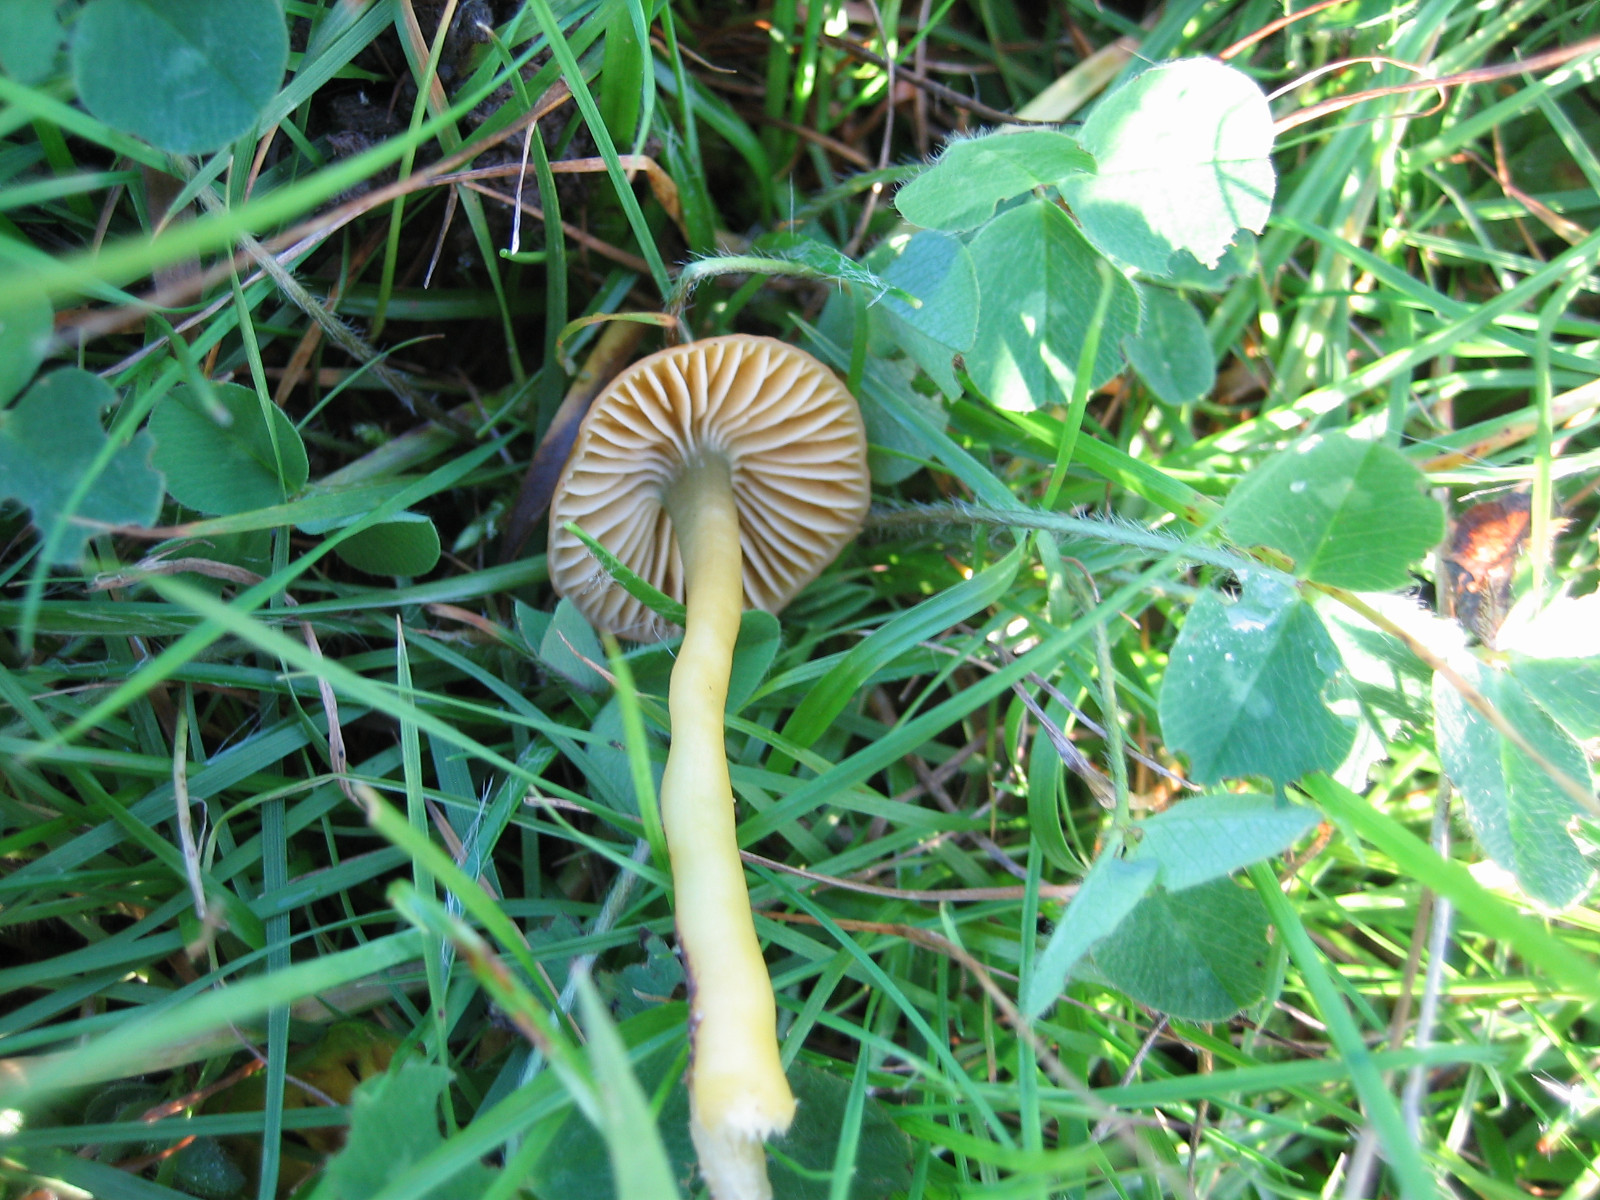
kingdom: Fungi
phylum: Basidiomycota
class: Agaricomycetes
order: Agaricales
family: Hygrophoraceae
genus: Gliophorus
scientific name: Gliophorus psittacinus
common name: papegøje-vokshat
